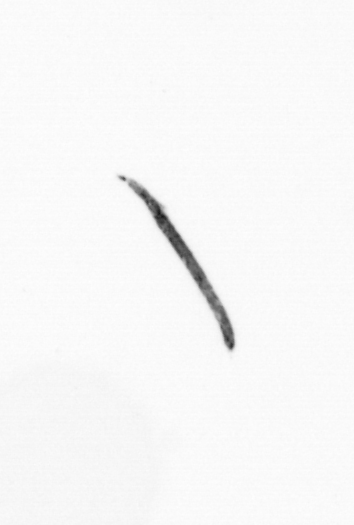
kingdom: Bacteria
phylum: Cyanobacteria
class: Cyanobacteriia
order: Cyanobacteriales
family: Microcoleaceae
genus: Trichodesmium
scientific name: Trichodesmium
